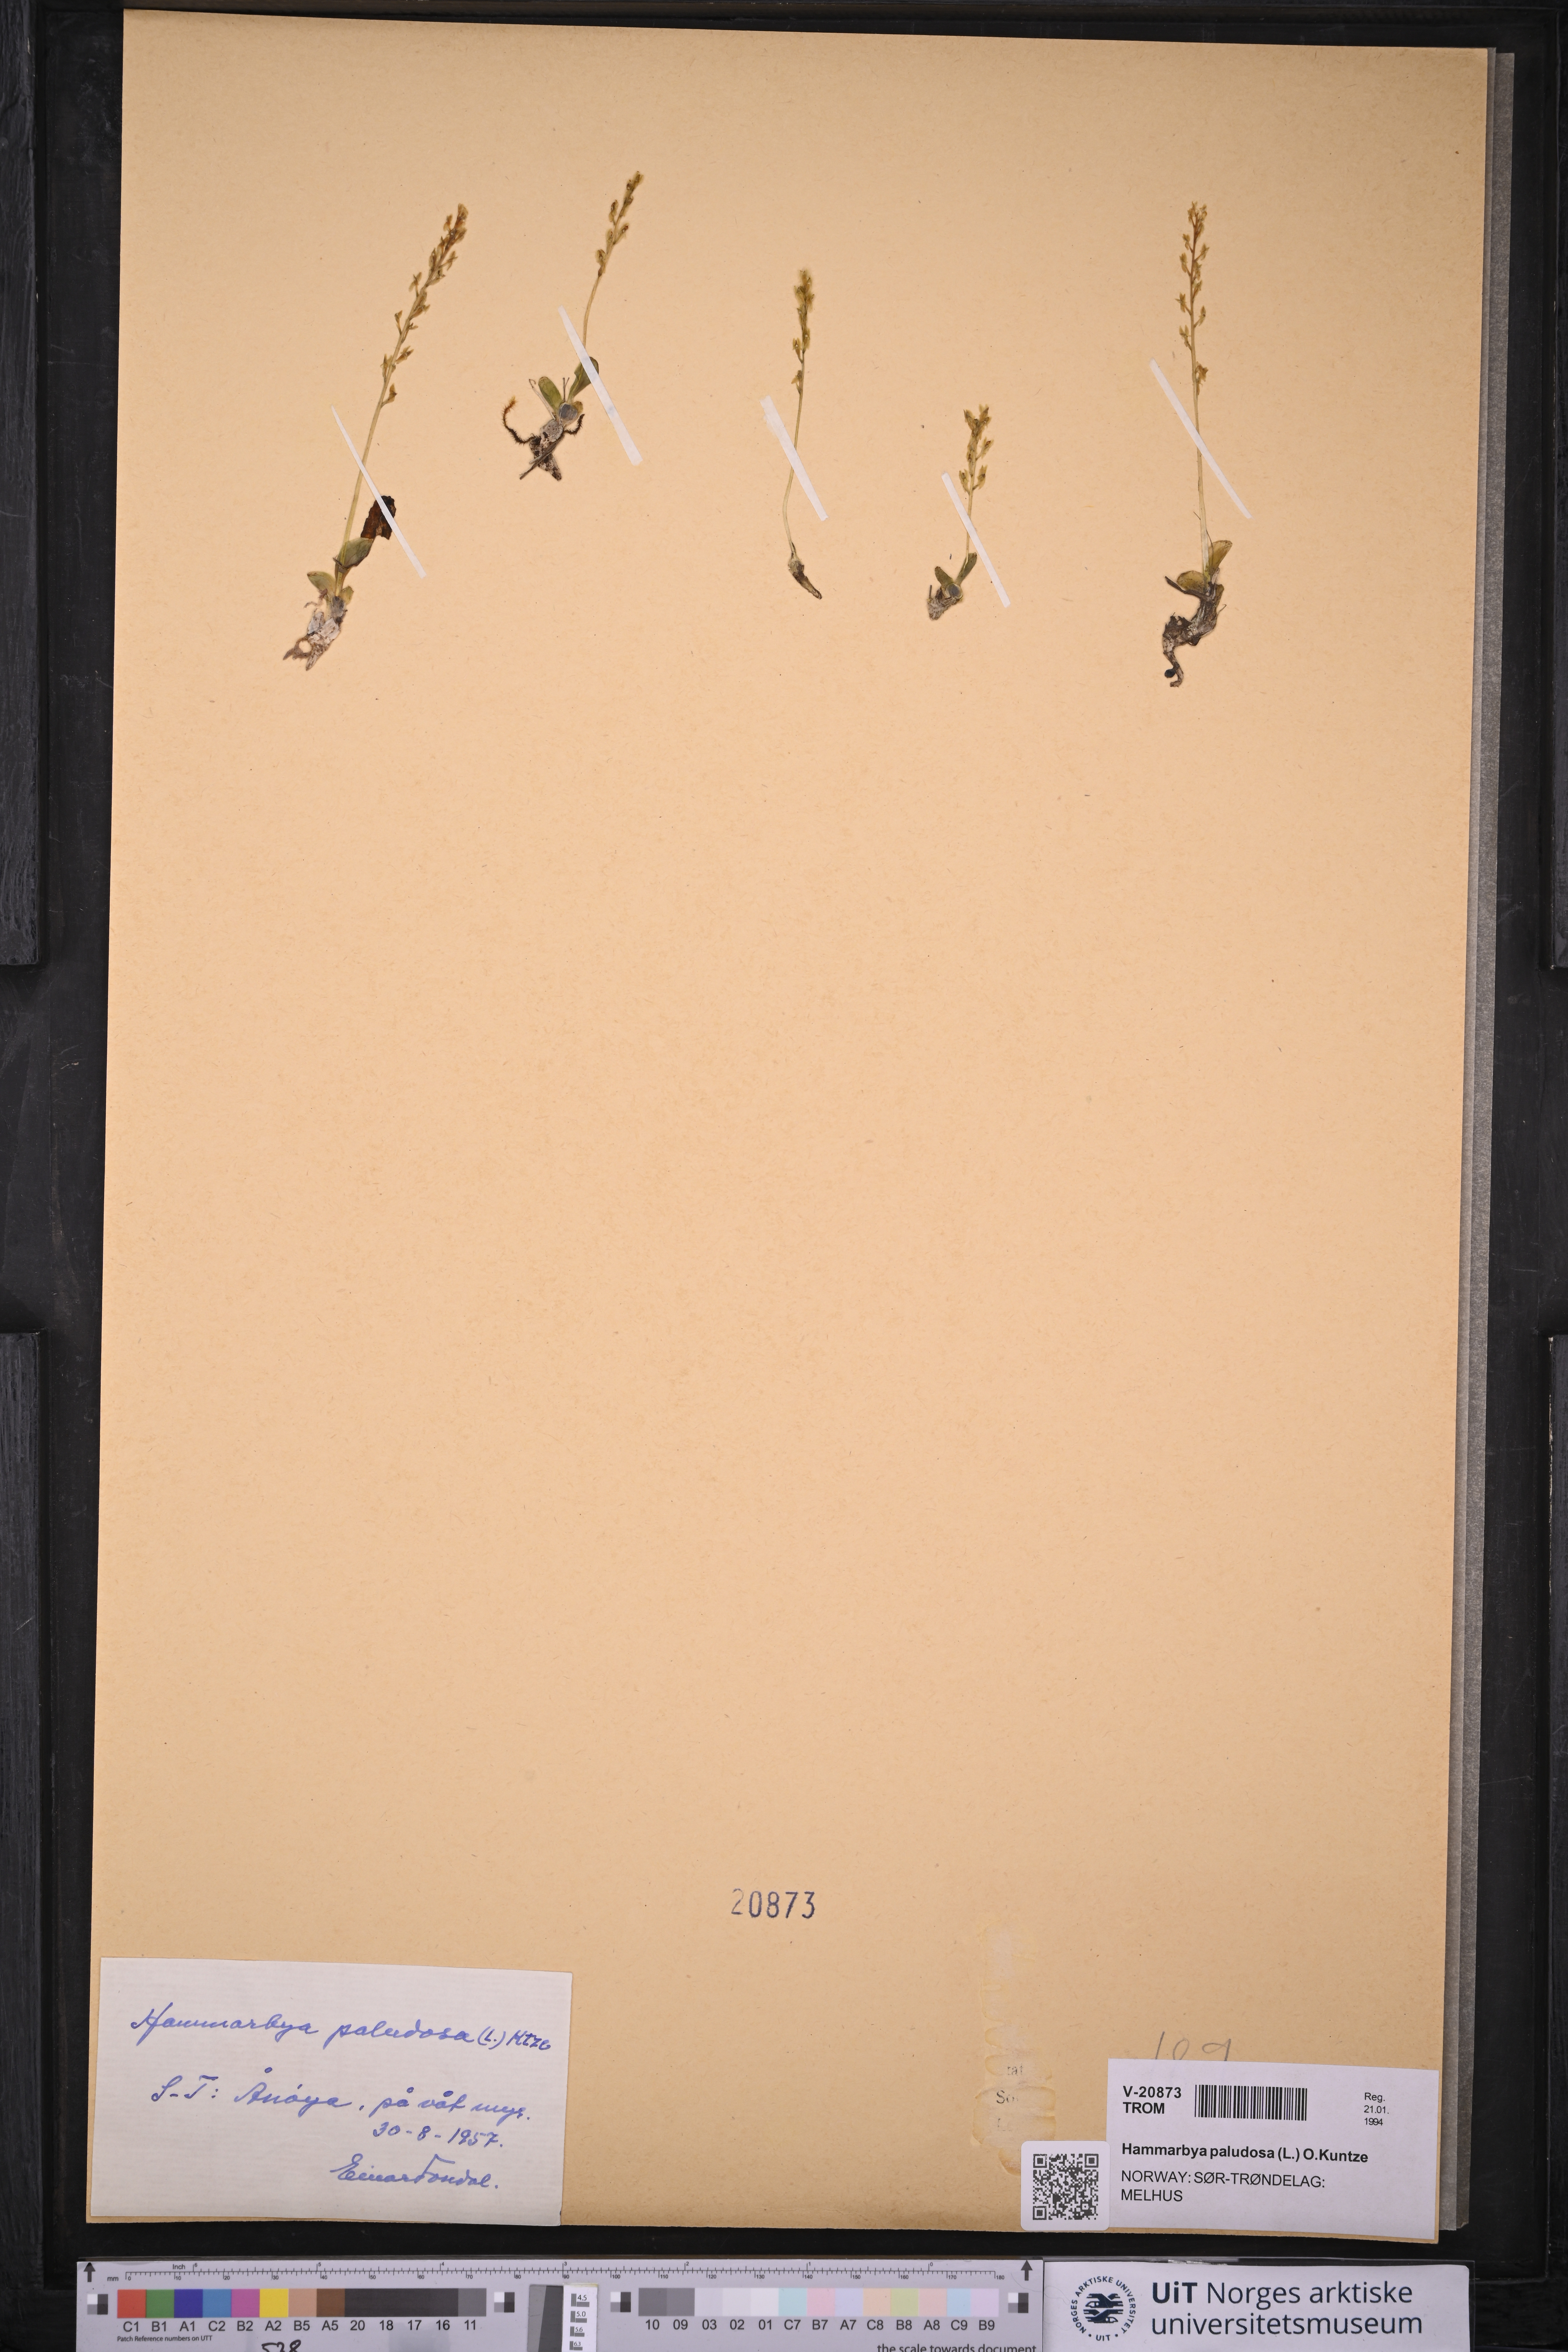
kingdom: Plantae
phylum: Tracheophyta
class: Liliopsida
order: Asparagales
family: Orchidaceae
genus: Hammarbya
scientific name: Hammarbya paludosa
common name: Bog orchid
